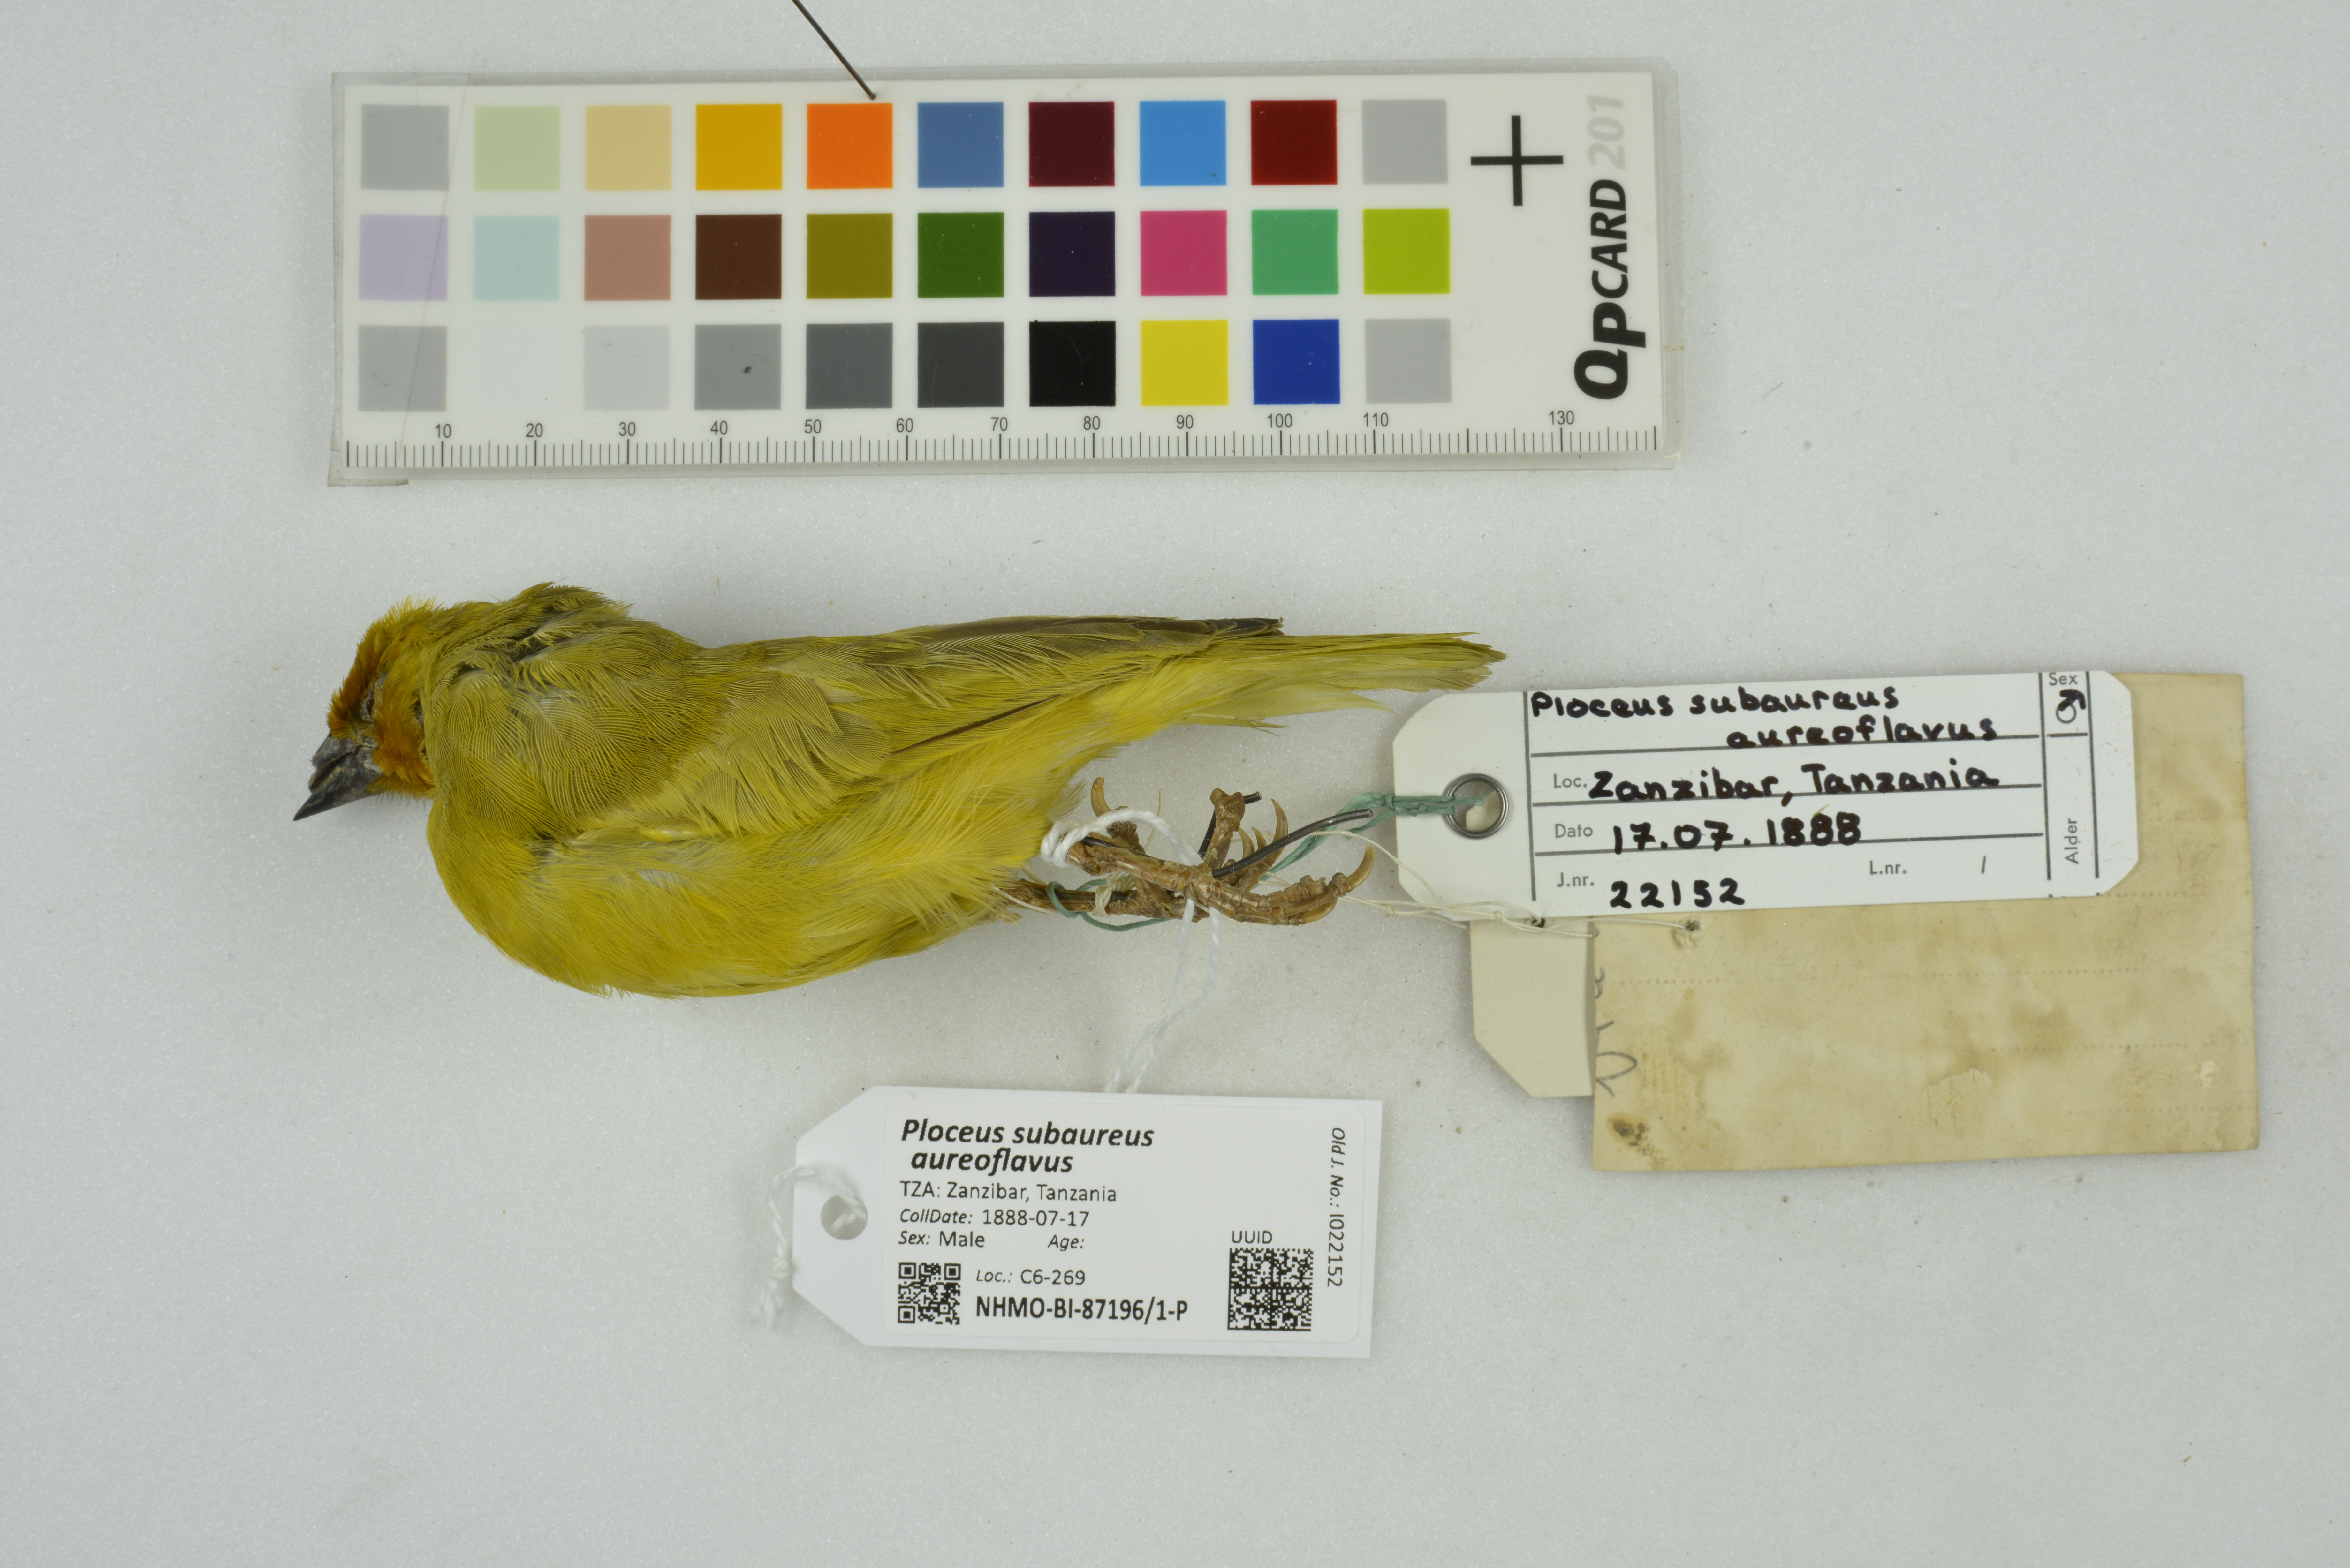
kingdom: Animalia
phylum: Chordata
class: Aves
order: Passeriformes
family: Ploceidae
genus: Ploceus
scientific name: Ploceus subaureus
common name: Yellow weaver
